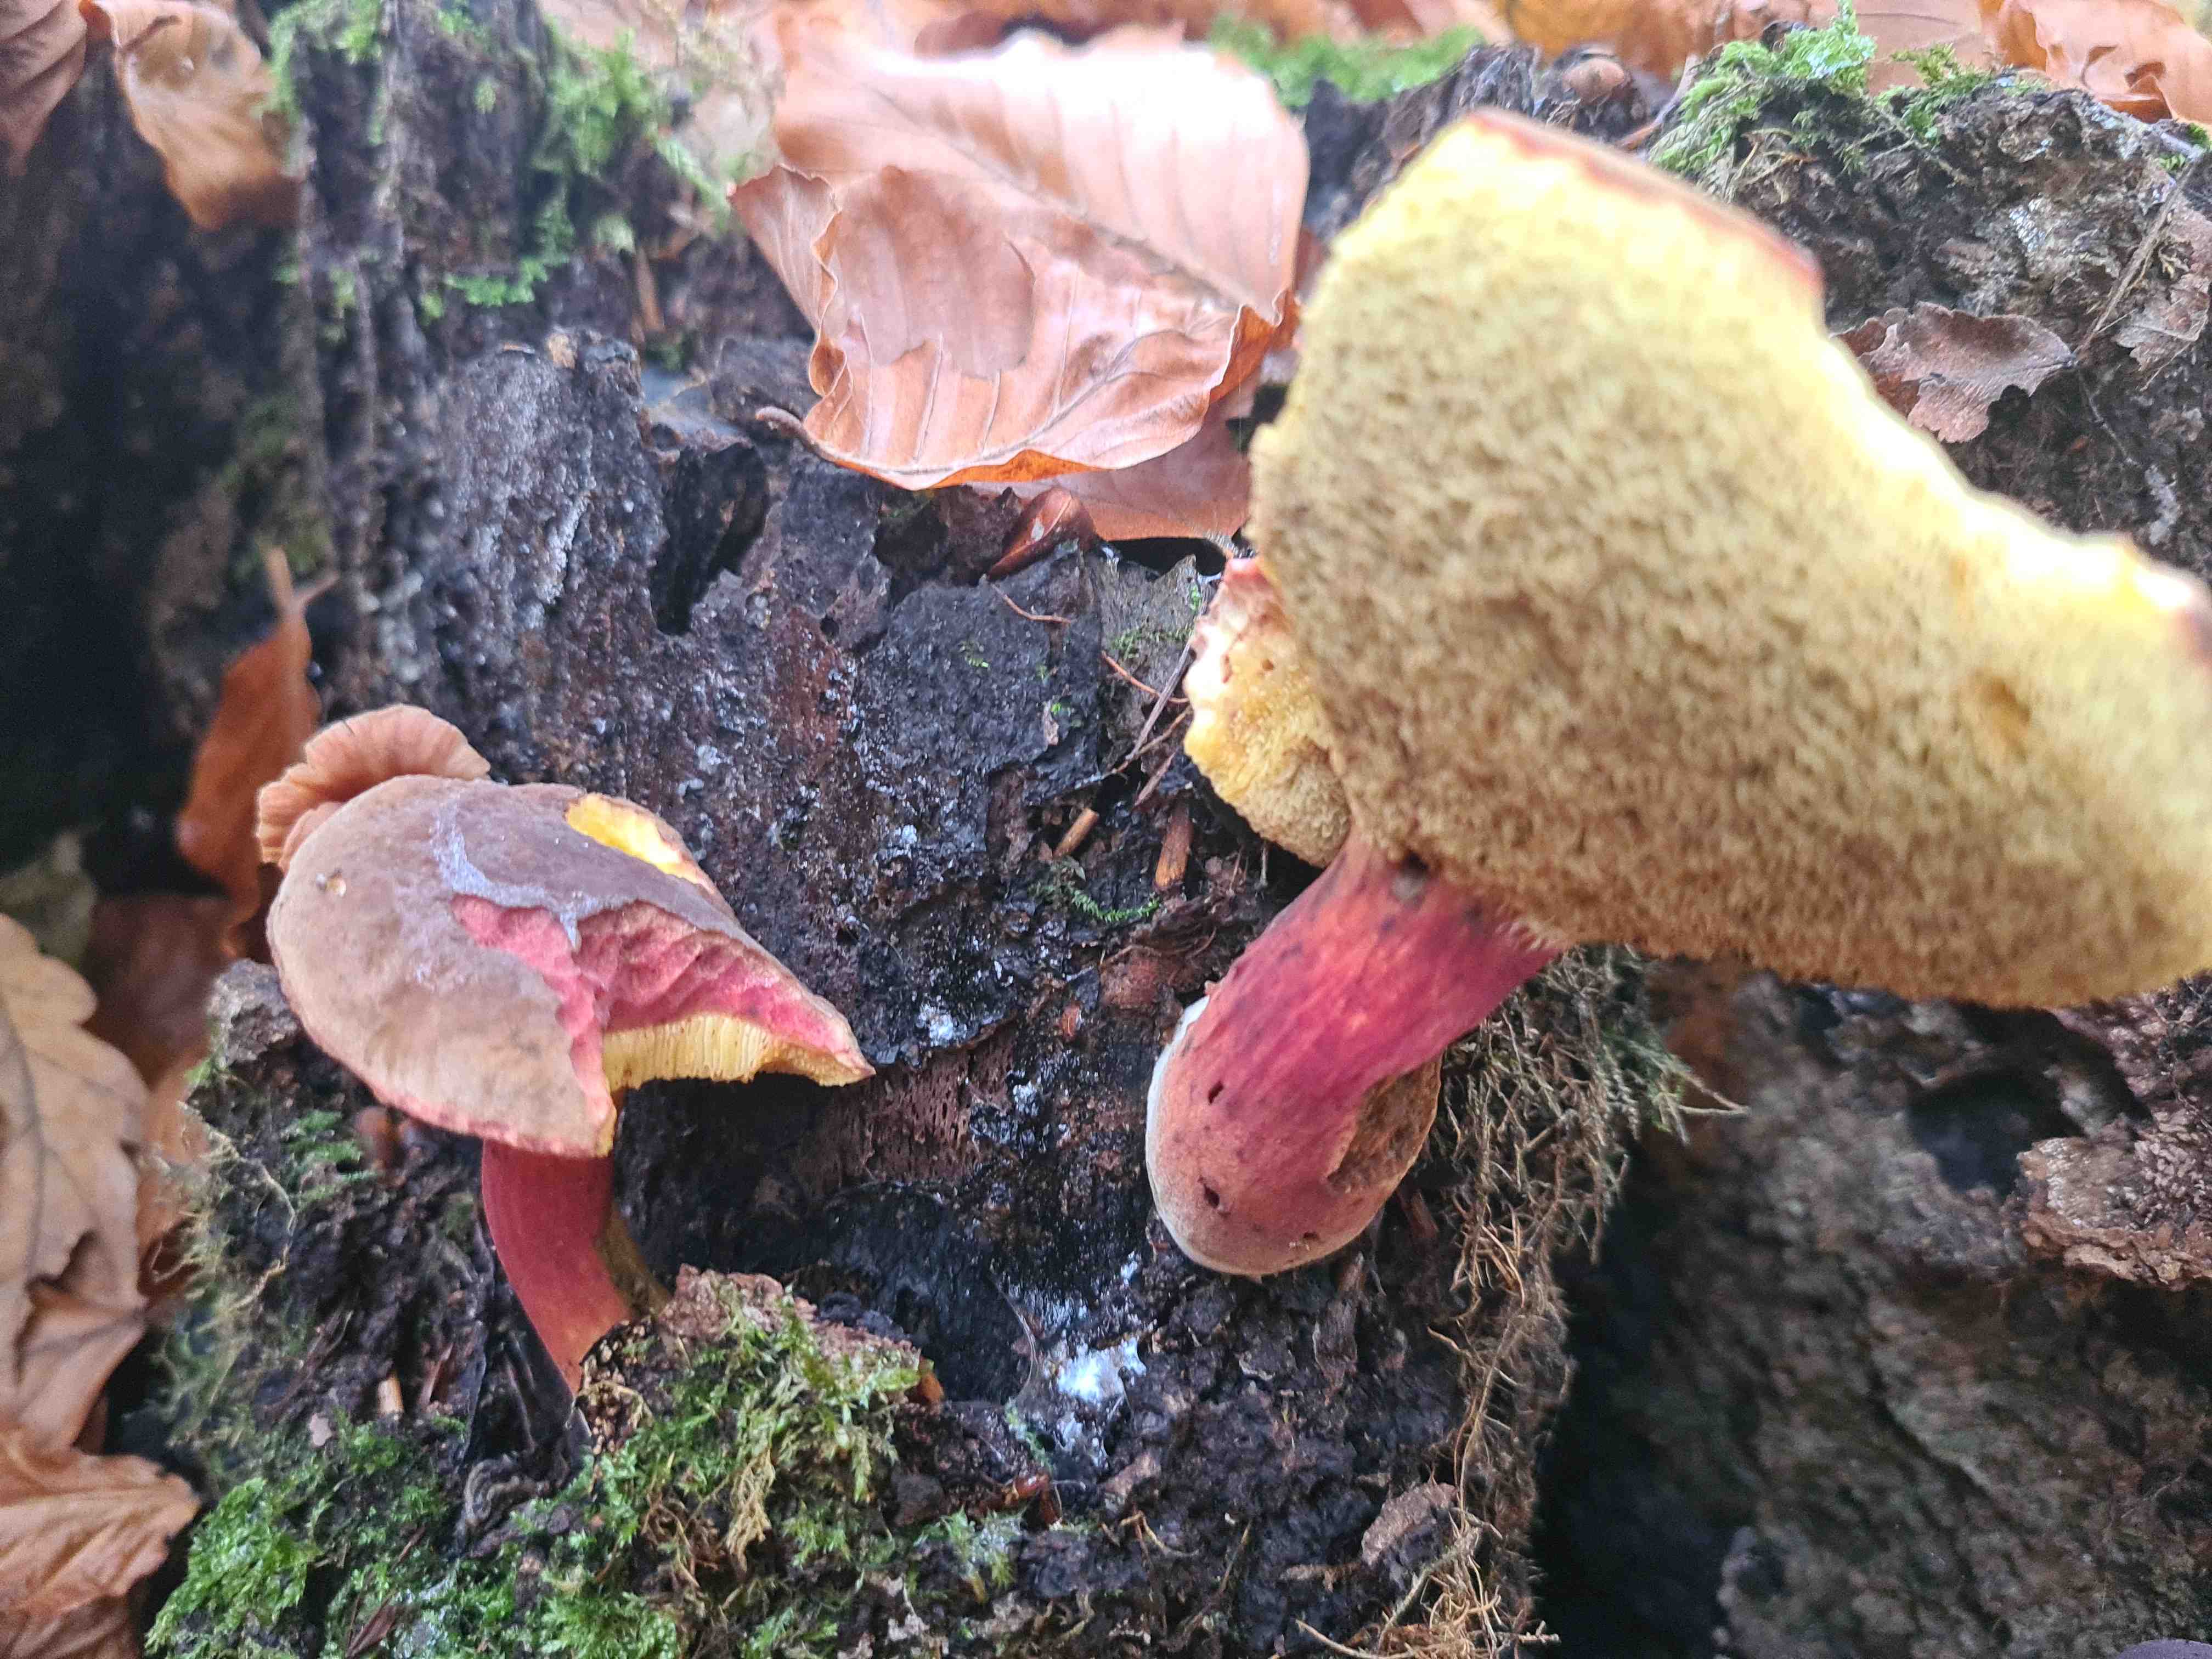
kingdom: Fungi
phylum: Basidiomycota
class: Agaricomycetes
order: Boletales
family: Boletaceae
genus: Xerocomellus
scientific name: Xerocomellus
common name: dværgrørhat
